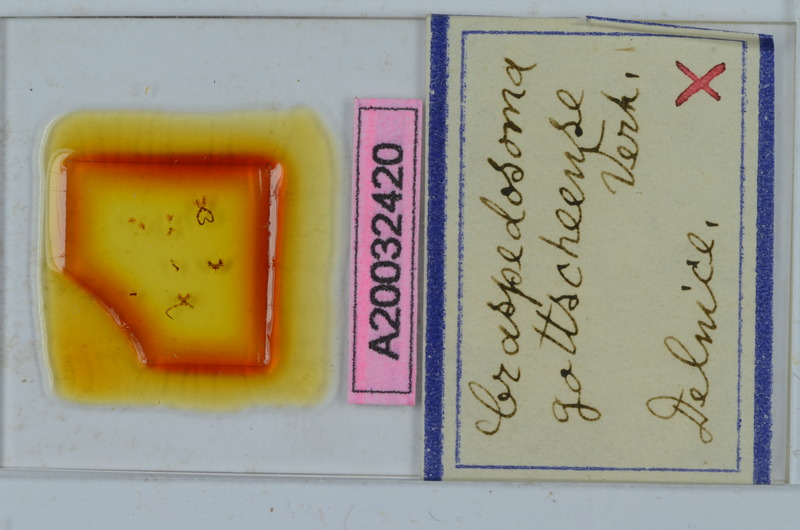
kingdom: Animalia
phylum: Arthropoda
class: Diplopoda
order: Chordeumatida
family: Craspedosomatidae
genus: Craspedosoma
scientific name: Craspedosoma slavum
